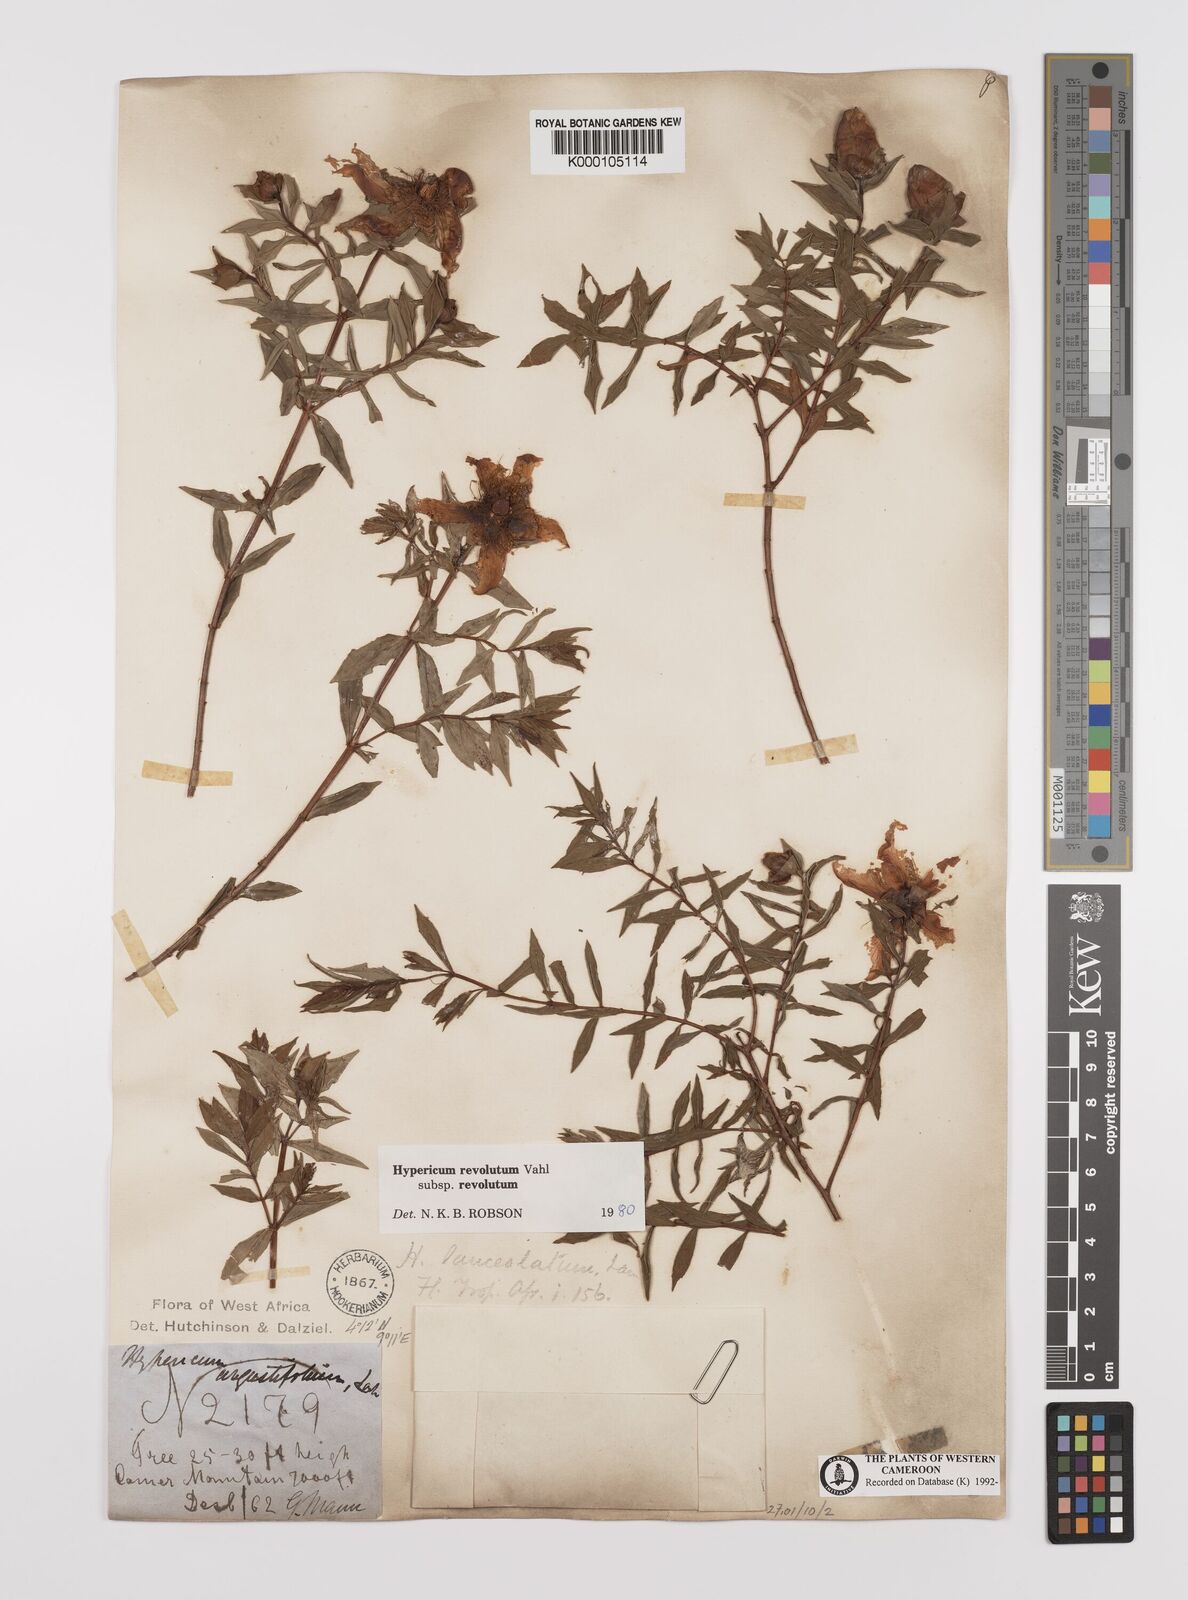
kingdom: Plantae
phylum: Tracheophyta
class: Magnoliopsida
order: Malpighiales
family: Hypericaceae
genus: Hypericum
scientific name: Hypericum revolutum
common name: Curry bush
